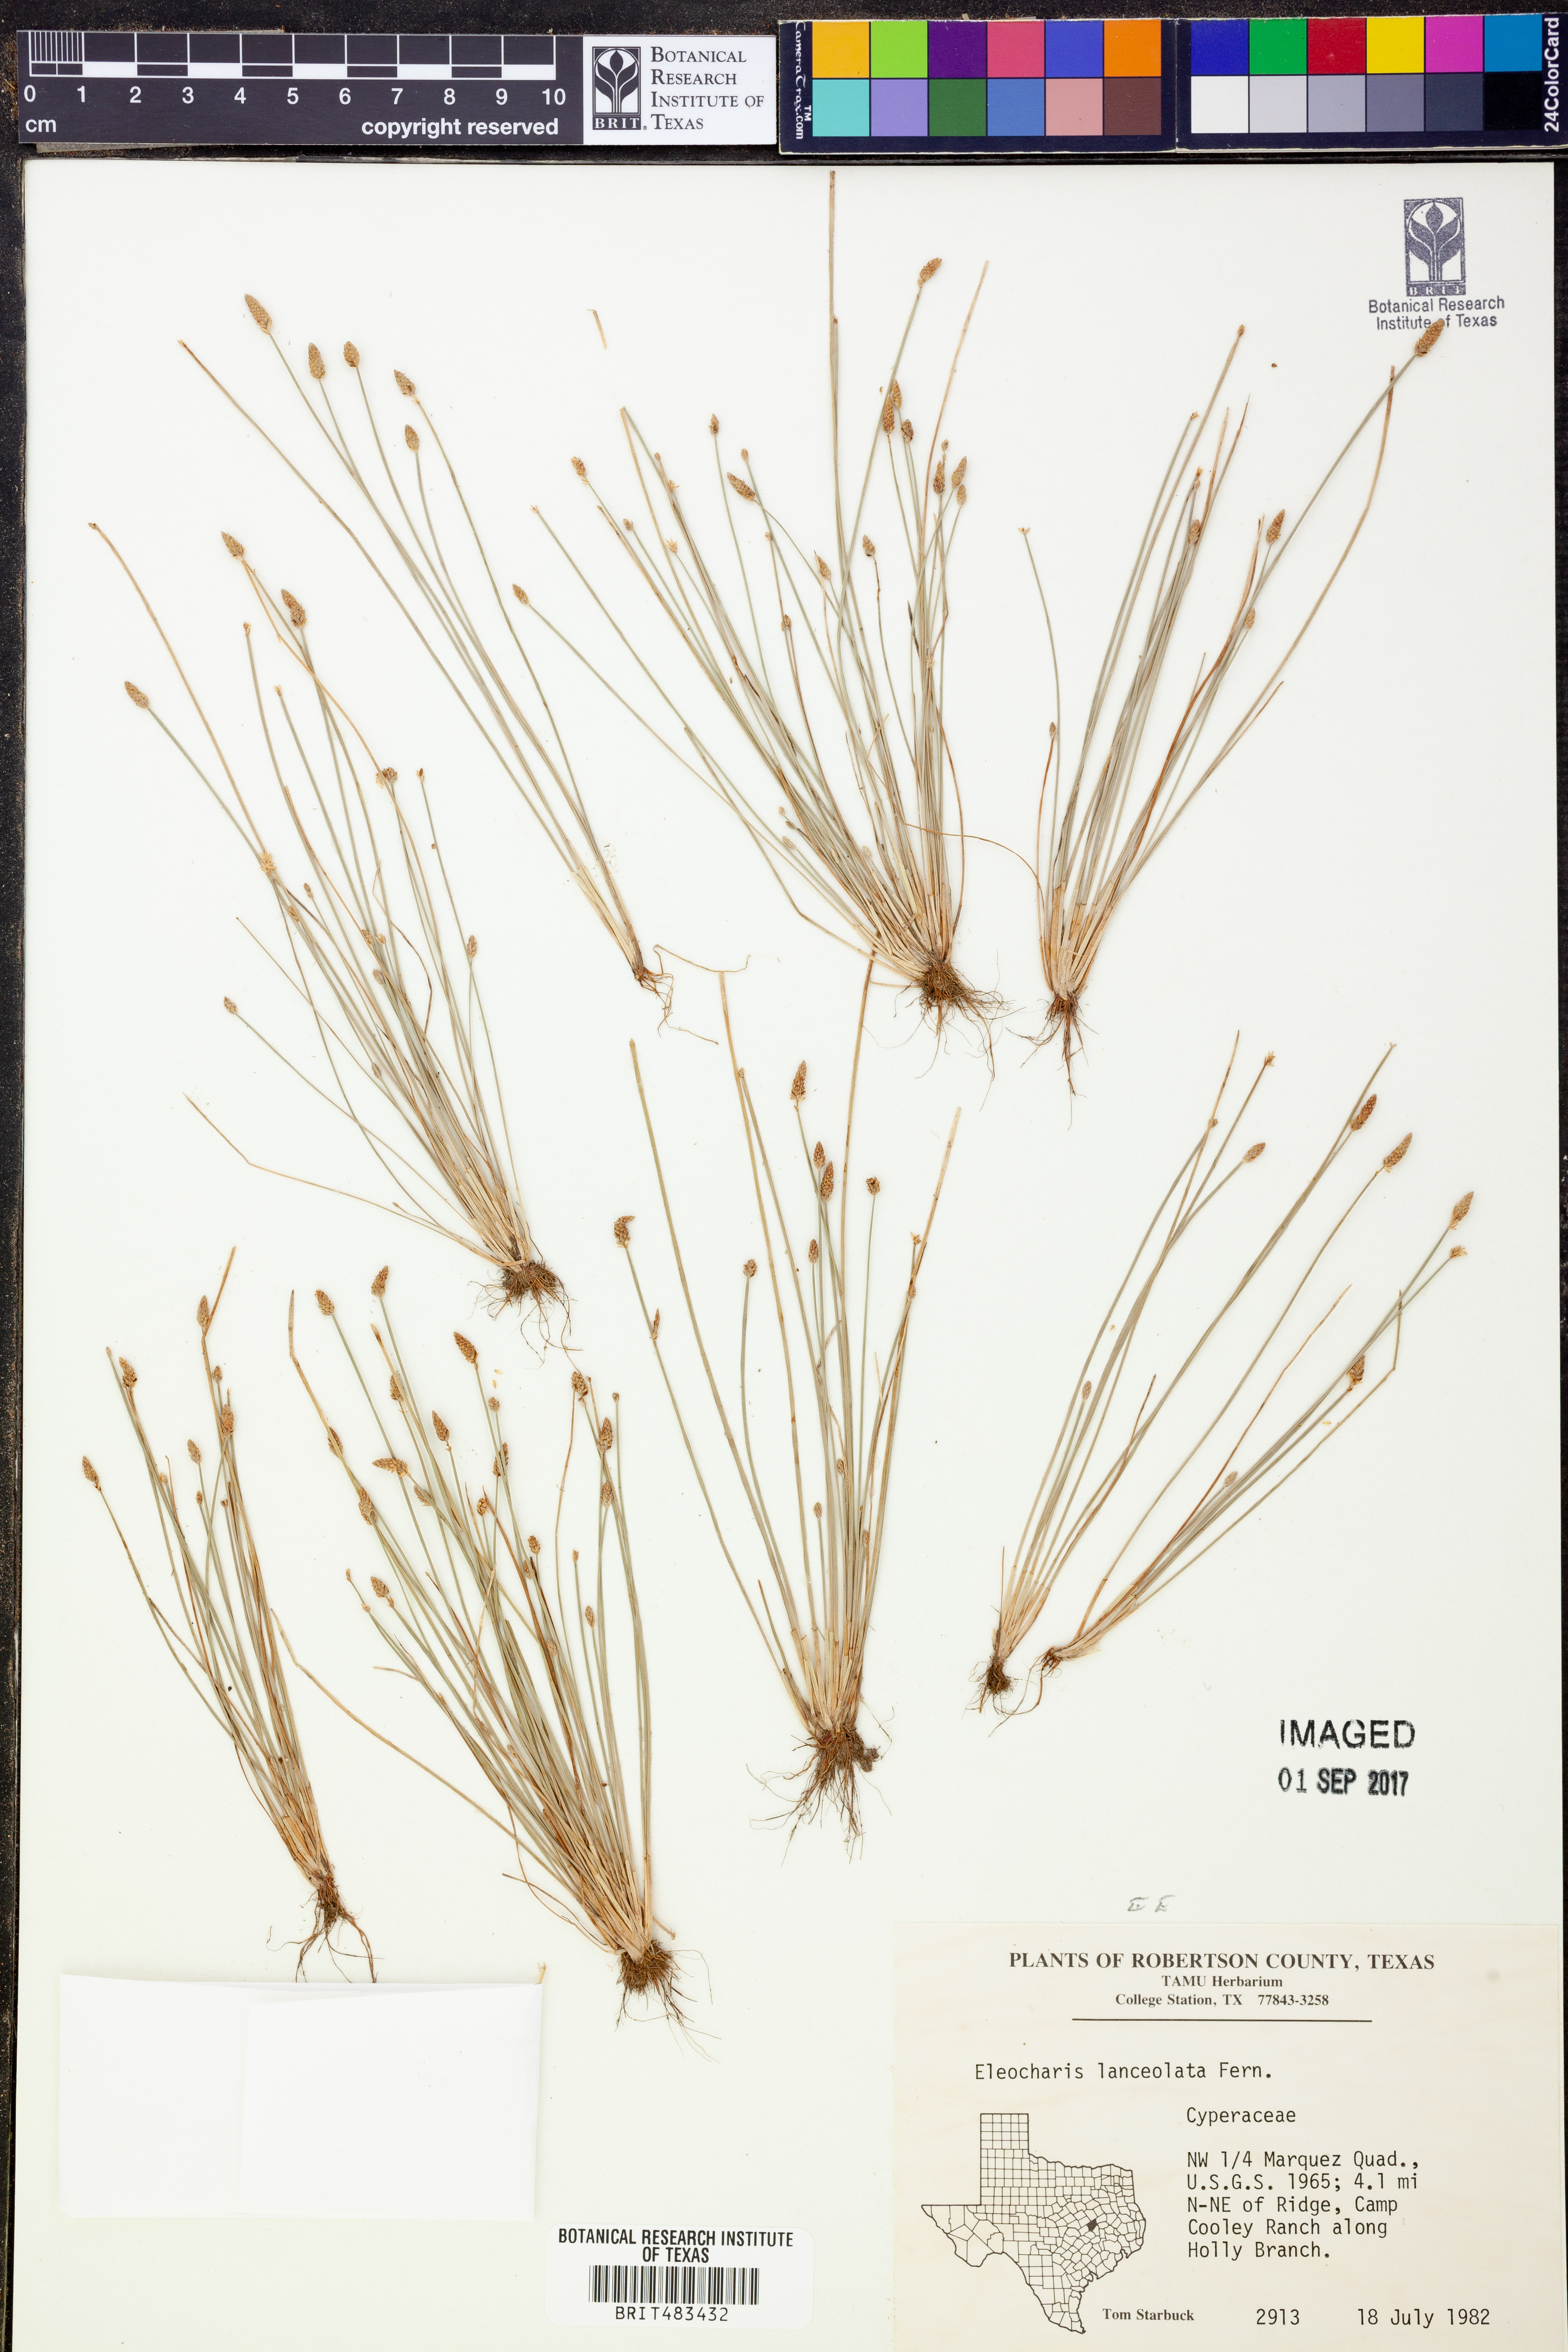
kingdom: Plantae
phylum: Tracheophyta
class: Liliopsida
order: Poales
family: Cyperaceae
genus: Eleocharis
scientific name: Eleocharis lanceolata
